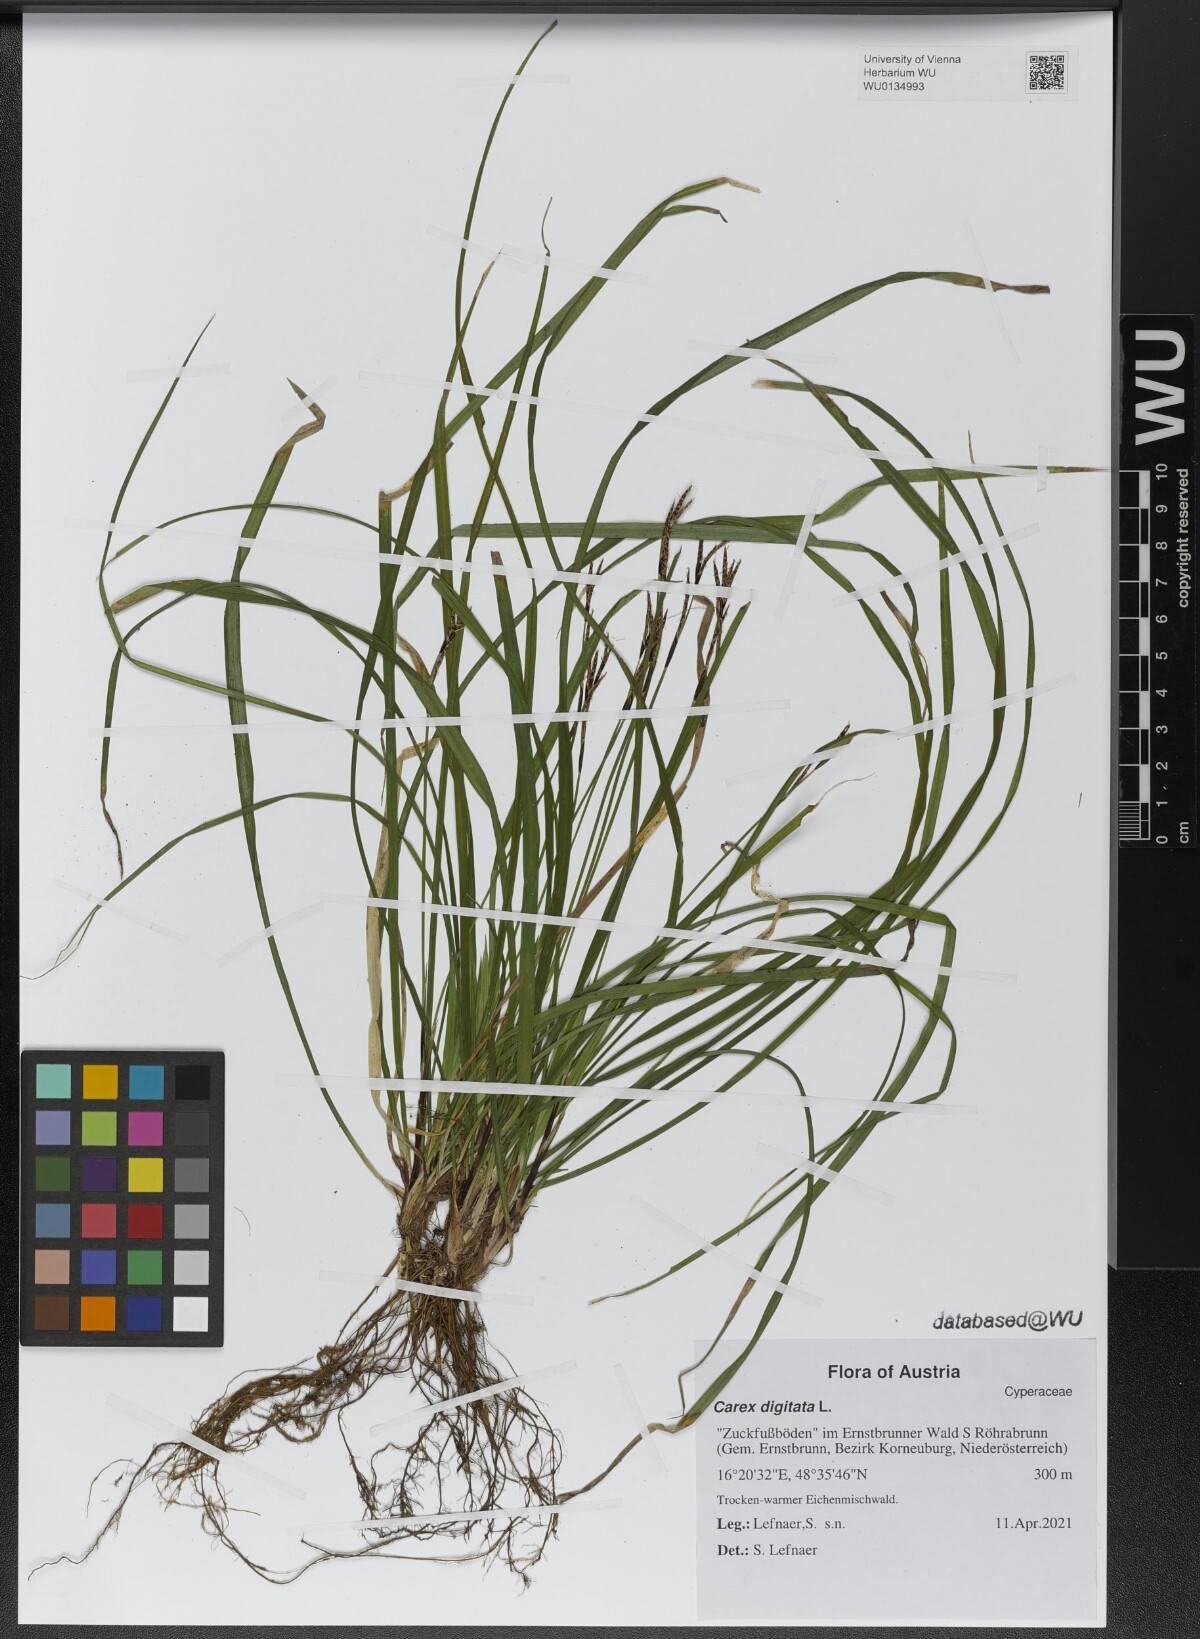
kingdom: Plantae
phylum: Tracheophyta
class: Liliopsida
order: Poales
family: Cyperaceae
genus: Carex
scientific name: Carex digitata
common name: Fingered sedge
